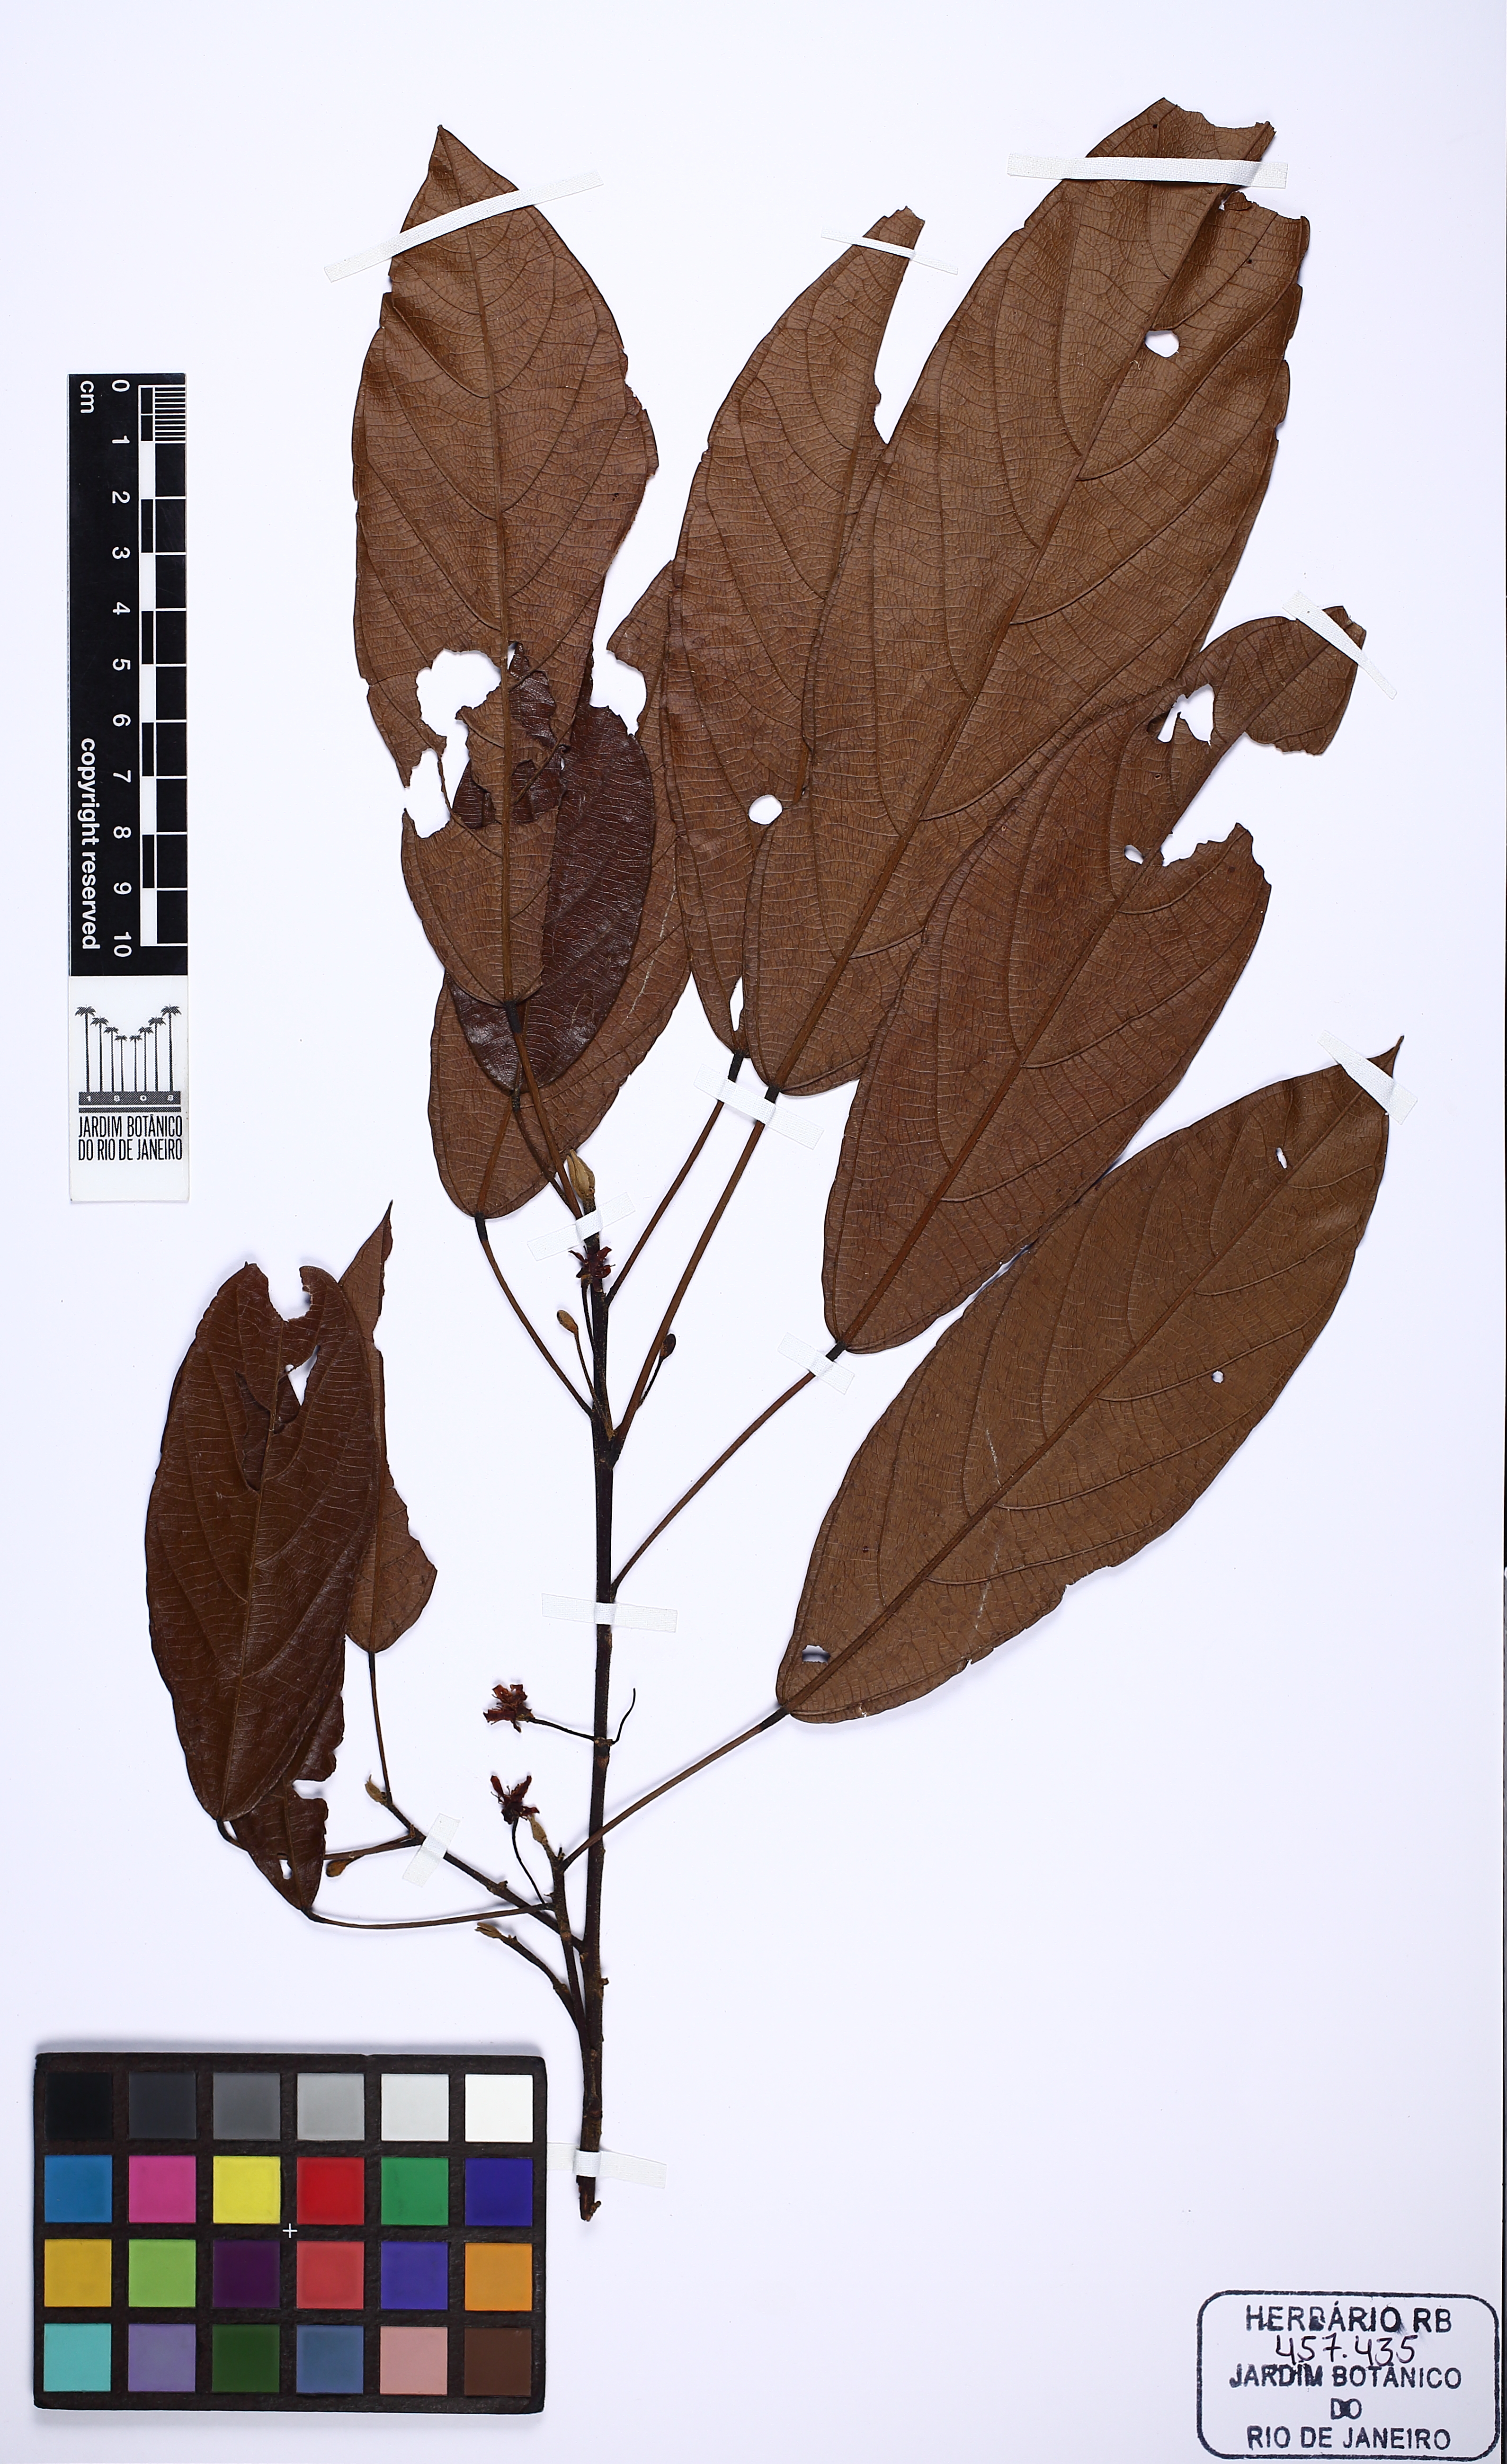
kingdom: Plantae
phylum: Tracheophyta
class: Magnoliopsida
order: Malvales
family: Malvaceae
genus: Scleronema
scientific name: Scleronema grandiflorum
